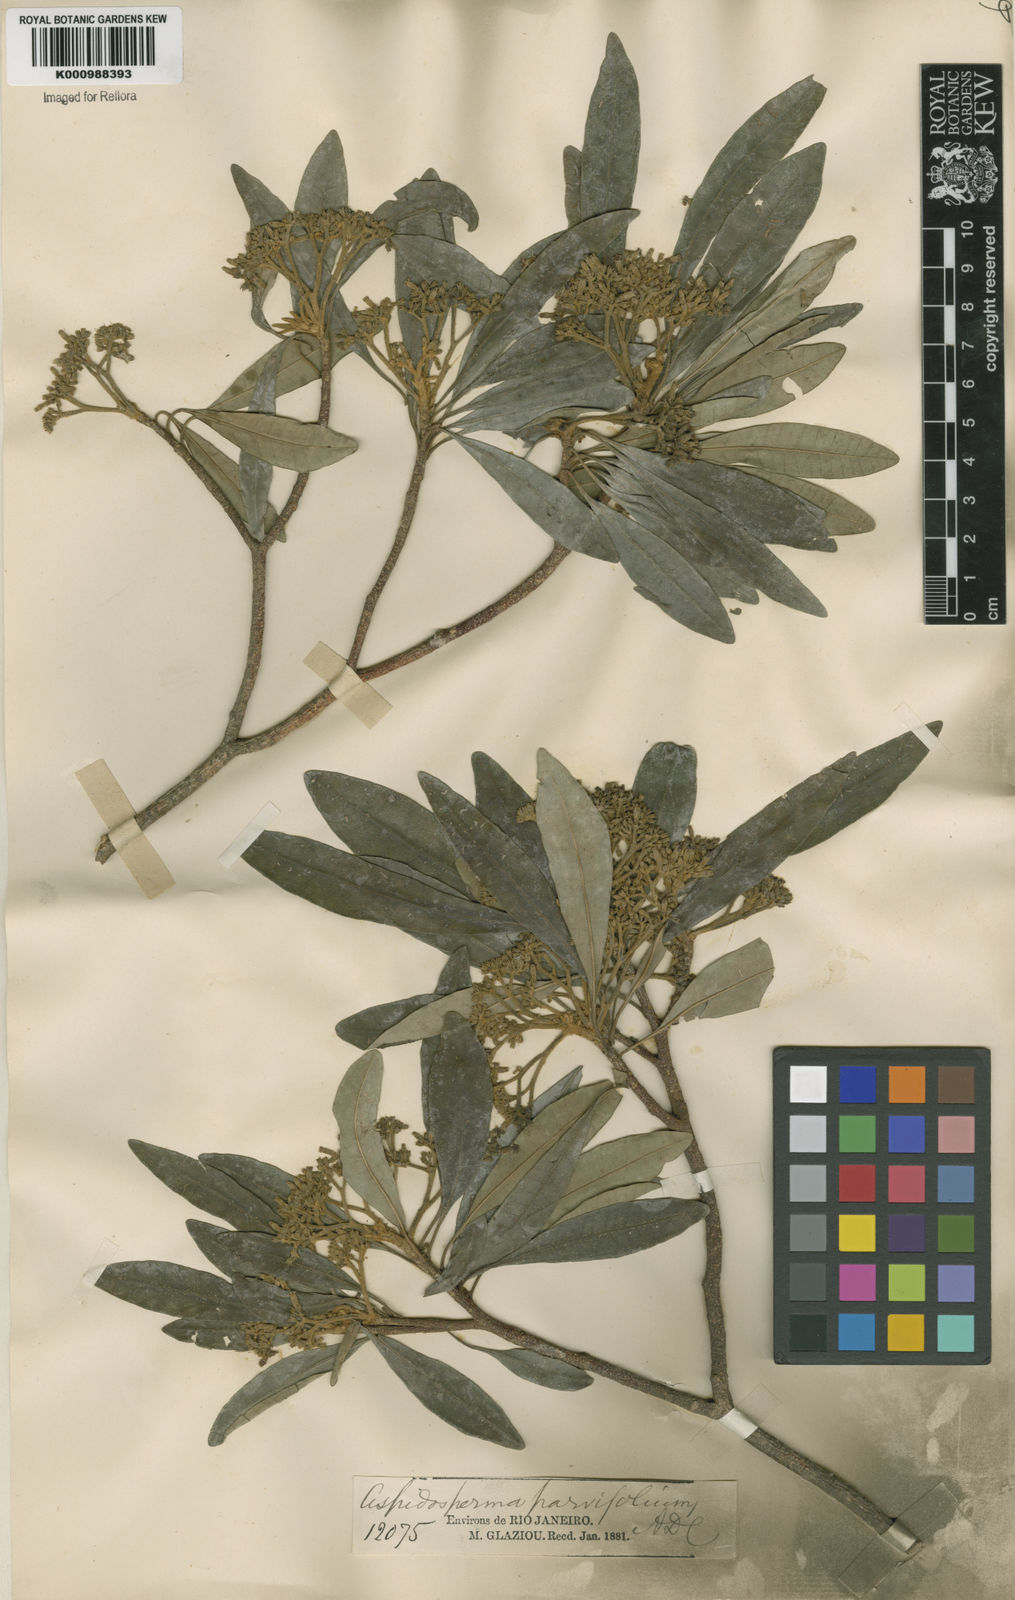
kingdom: Plantae
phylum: Tracheophyta
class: Magnoliopsida
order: Gentianales
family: Apocynaceae
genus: Aspidosperma
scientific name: Aspidosperma
